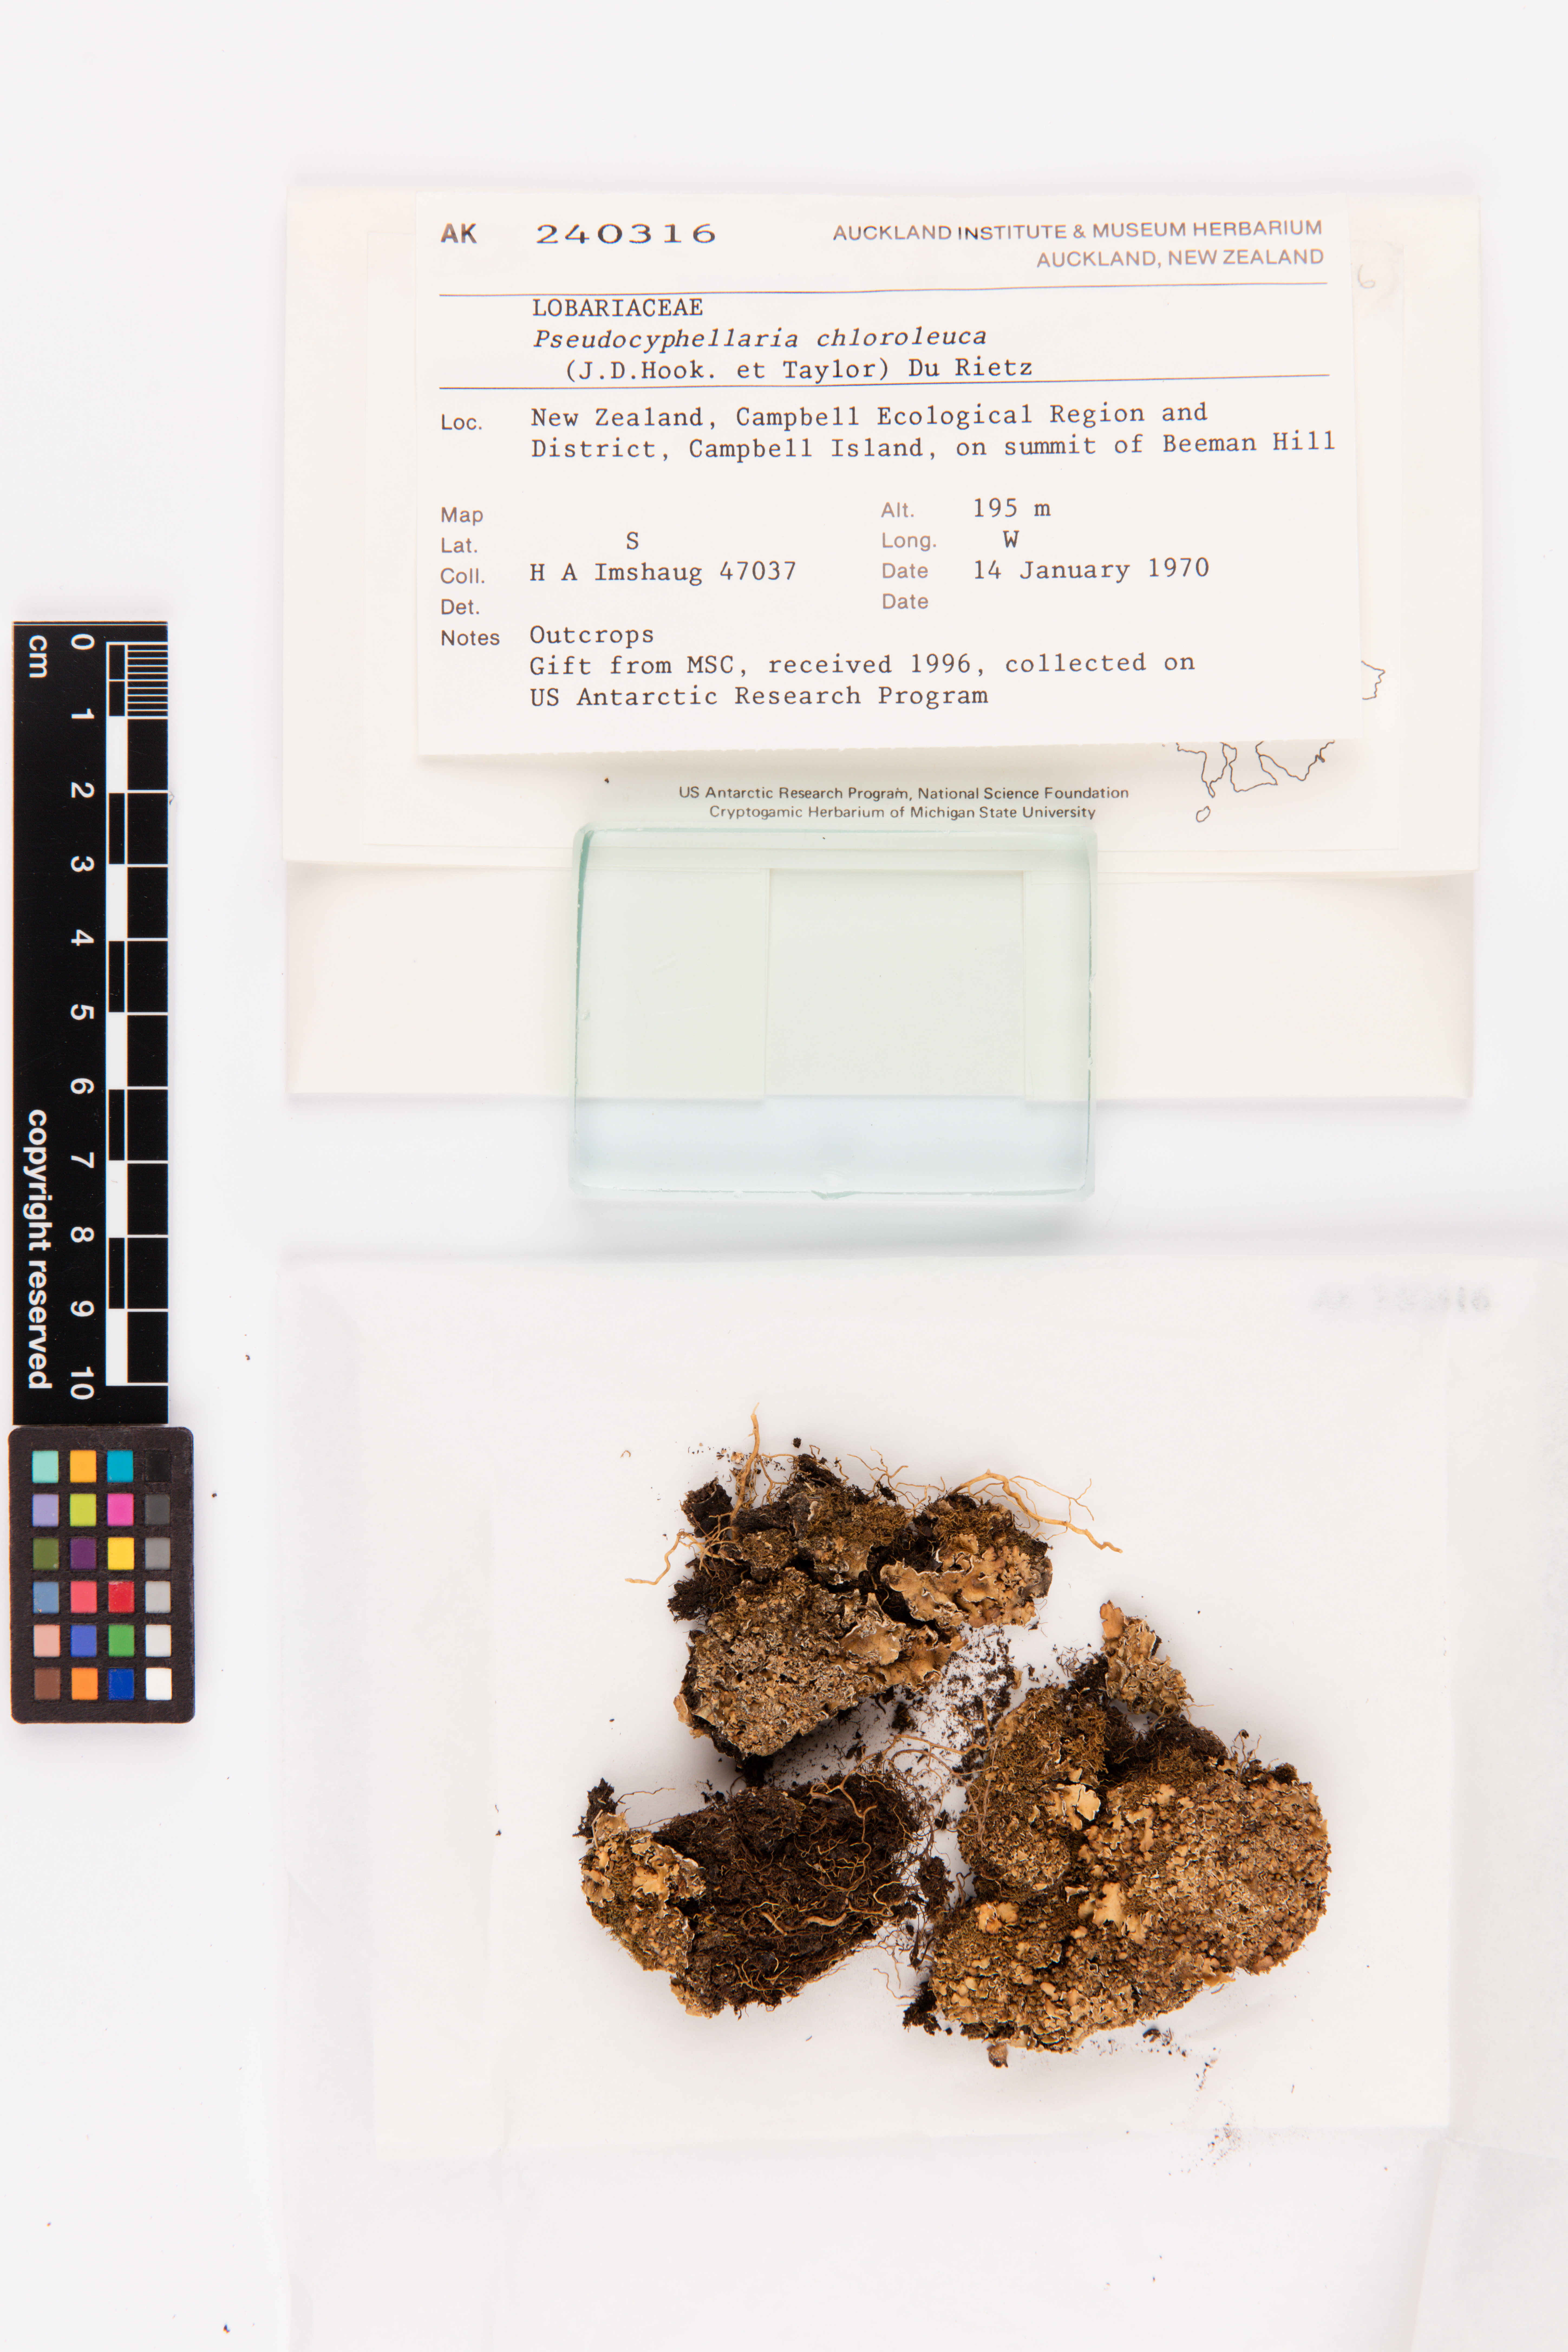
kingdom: Fungi
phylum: Ascomycota
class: Lecanoromycetes
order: Peltigerales
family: Lobariaceae
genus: Pseudocyphellaria
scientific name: Pseudocyphellaria chloroleuca
